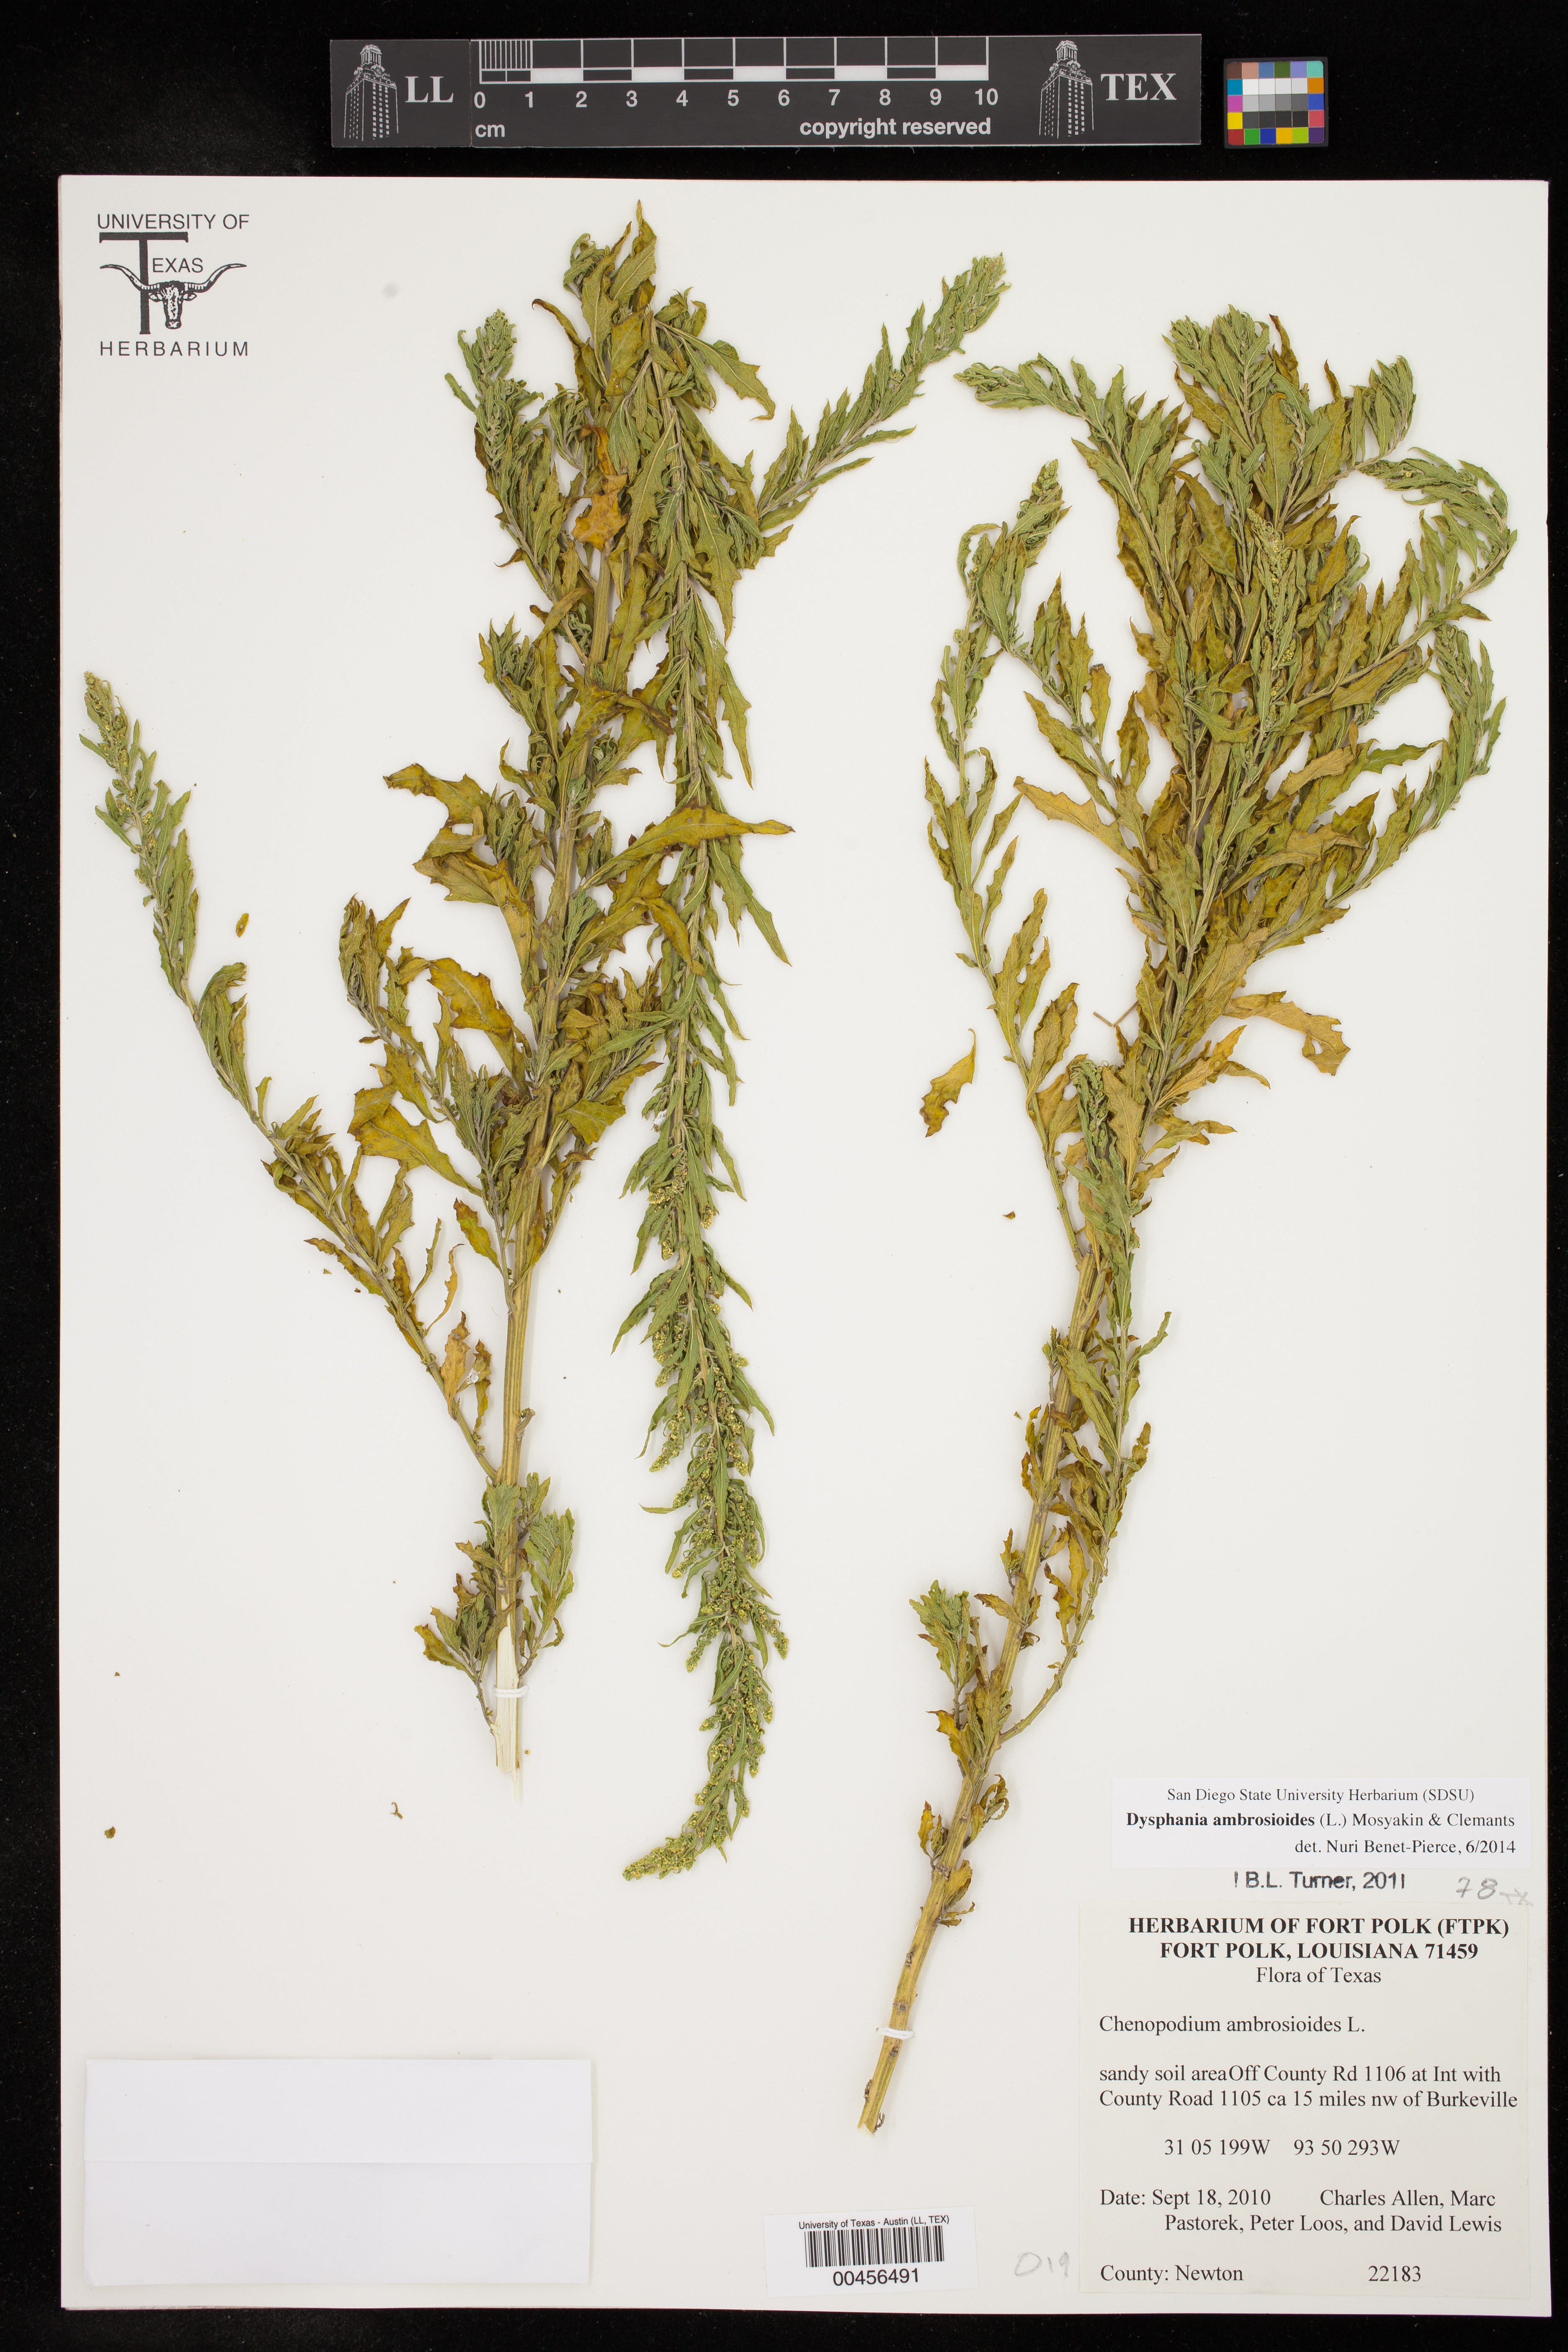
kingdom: Plantae
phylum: Tracheophyta
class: Magnoliopsida
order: Caryophyllales
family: Amaranthaceae
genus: Dysphania
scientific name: Dysphania ambrosioides
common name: Wormseed
